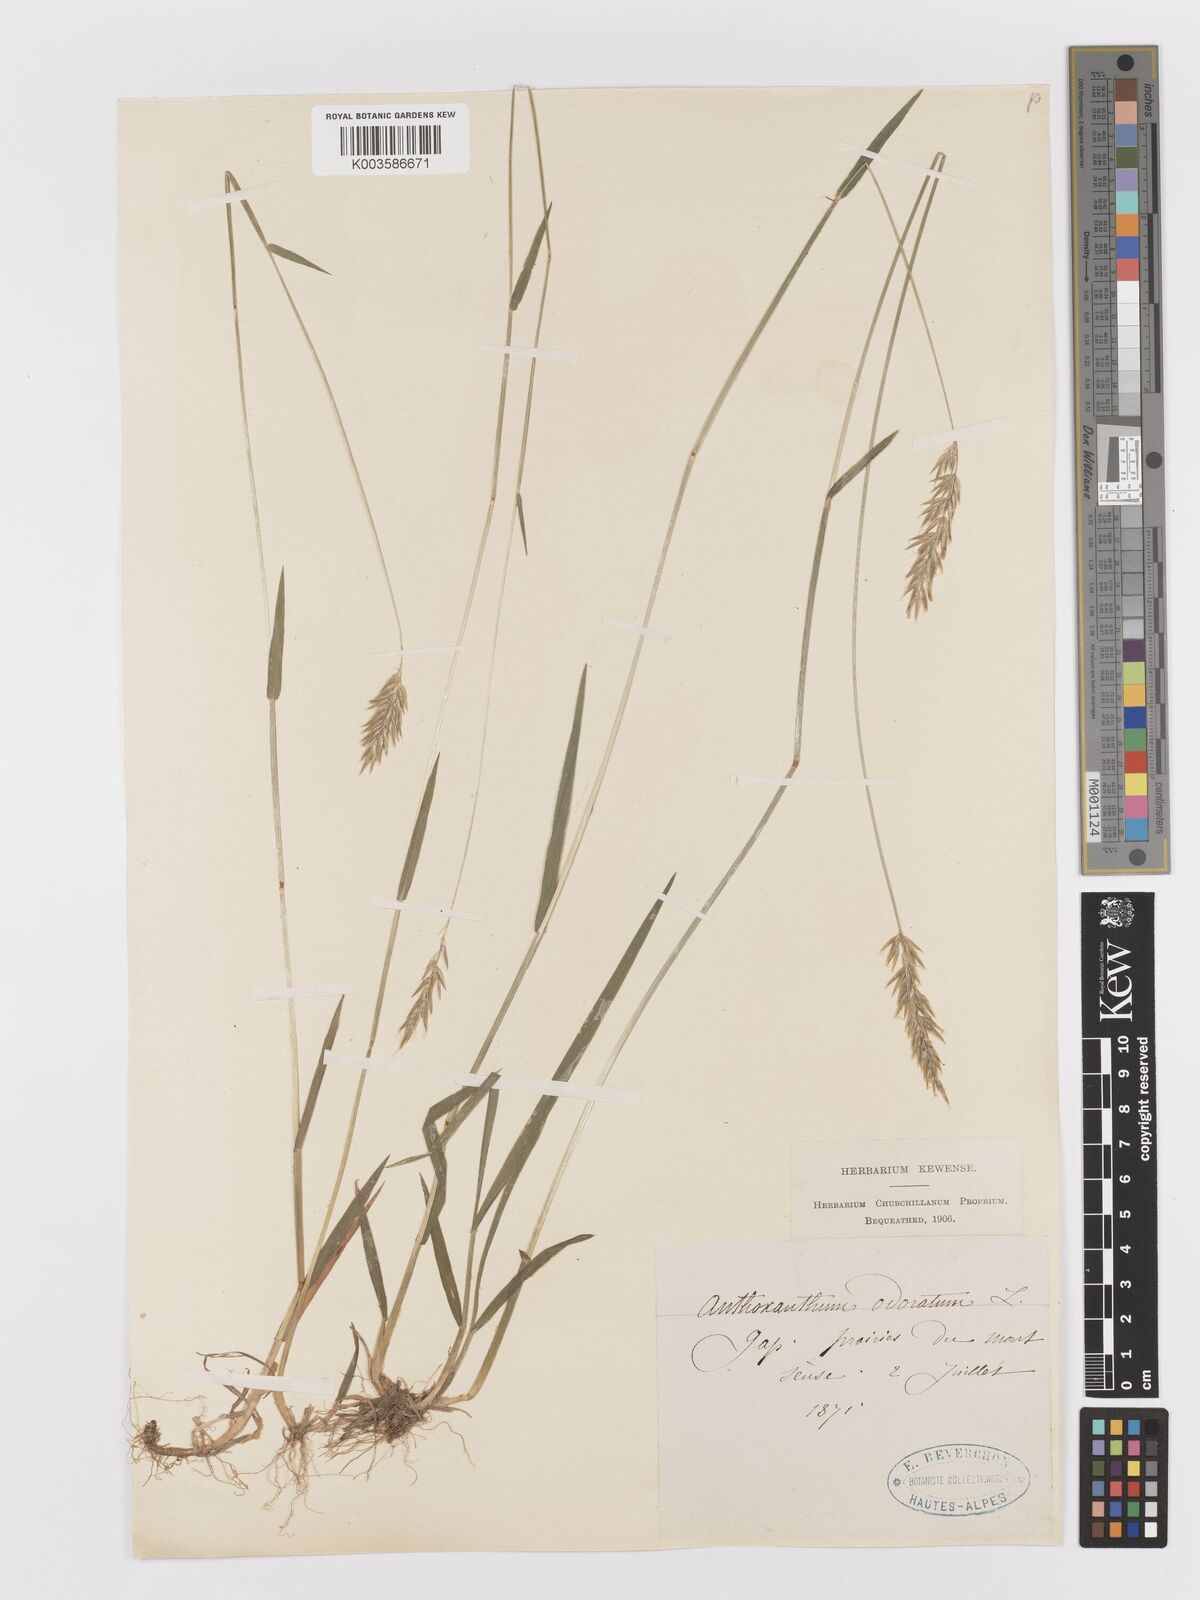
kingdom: Plantae
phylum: Tracheophyta
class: Liliopsida
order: Poales
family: Poaceae
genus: Anthoxanthum
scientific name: Anthoxanthum odoratum
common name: Sweet vernalgrass
